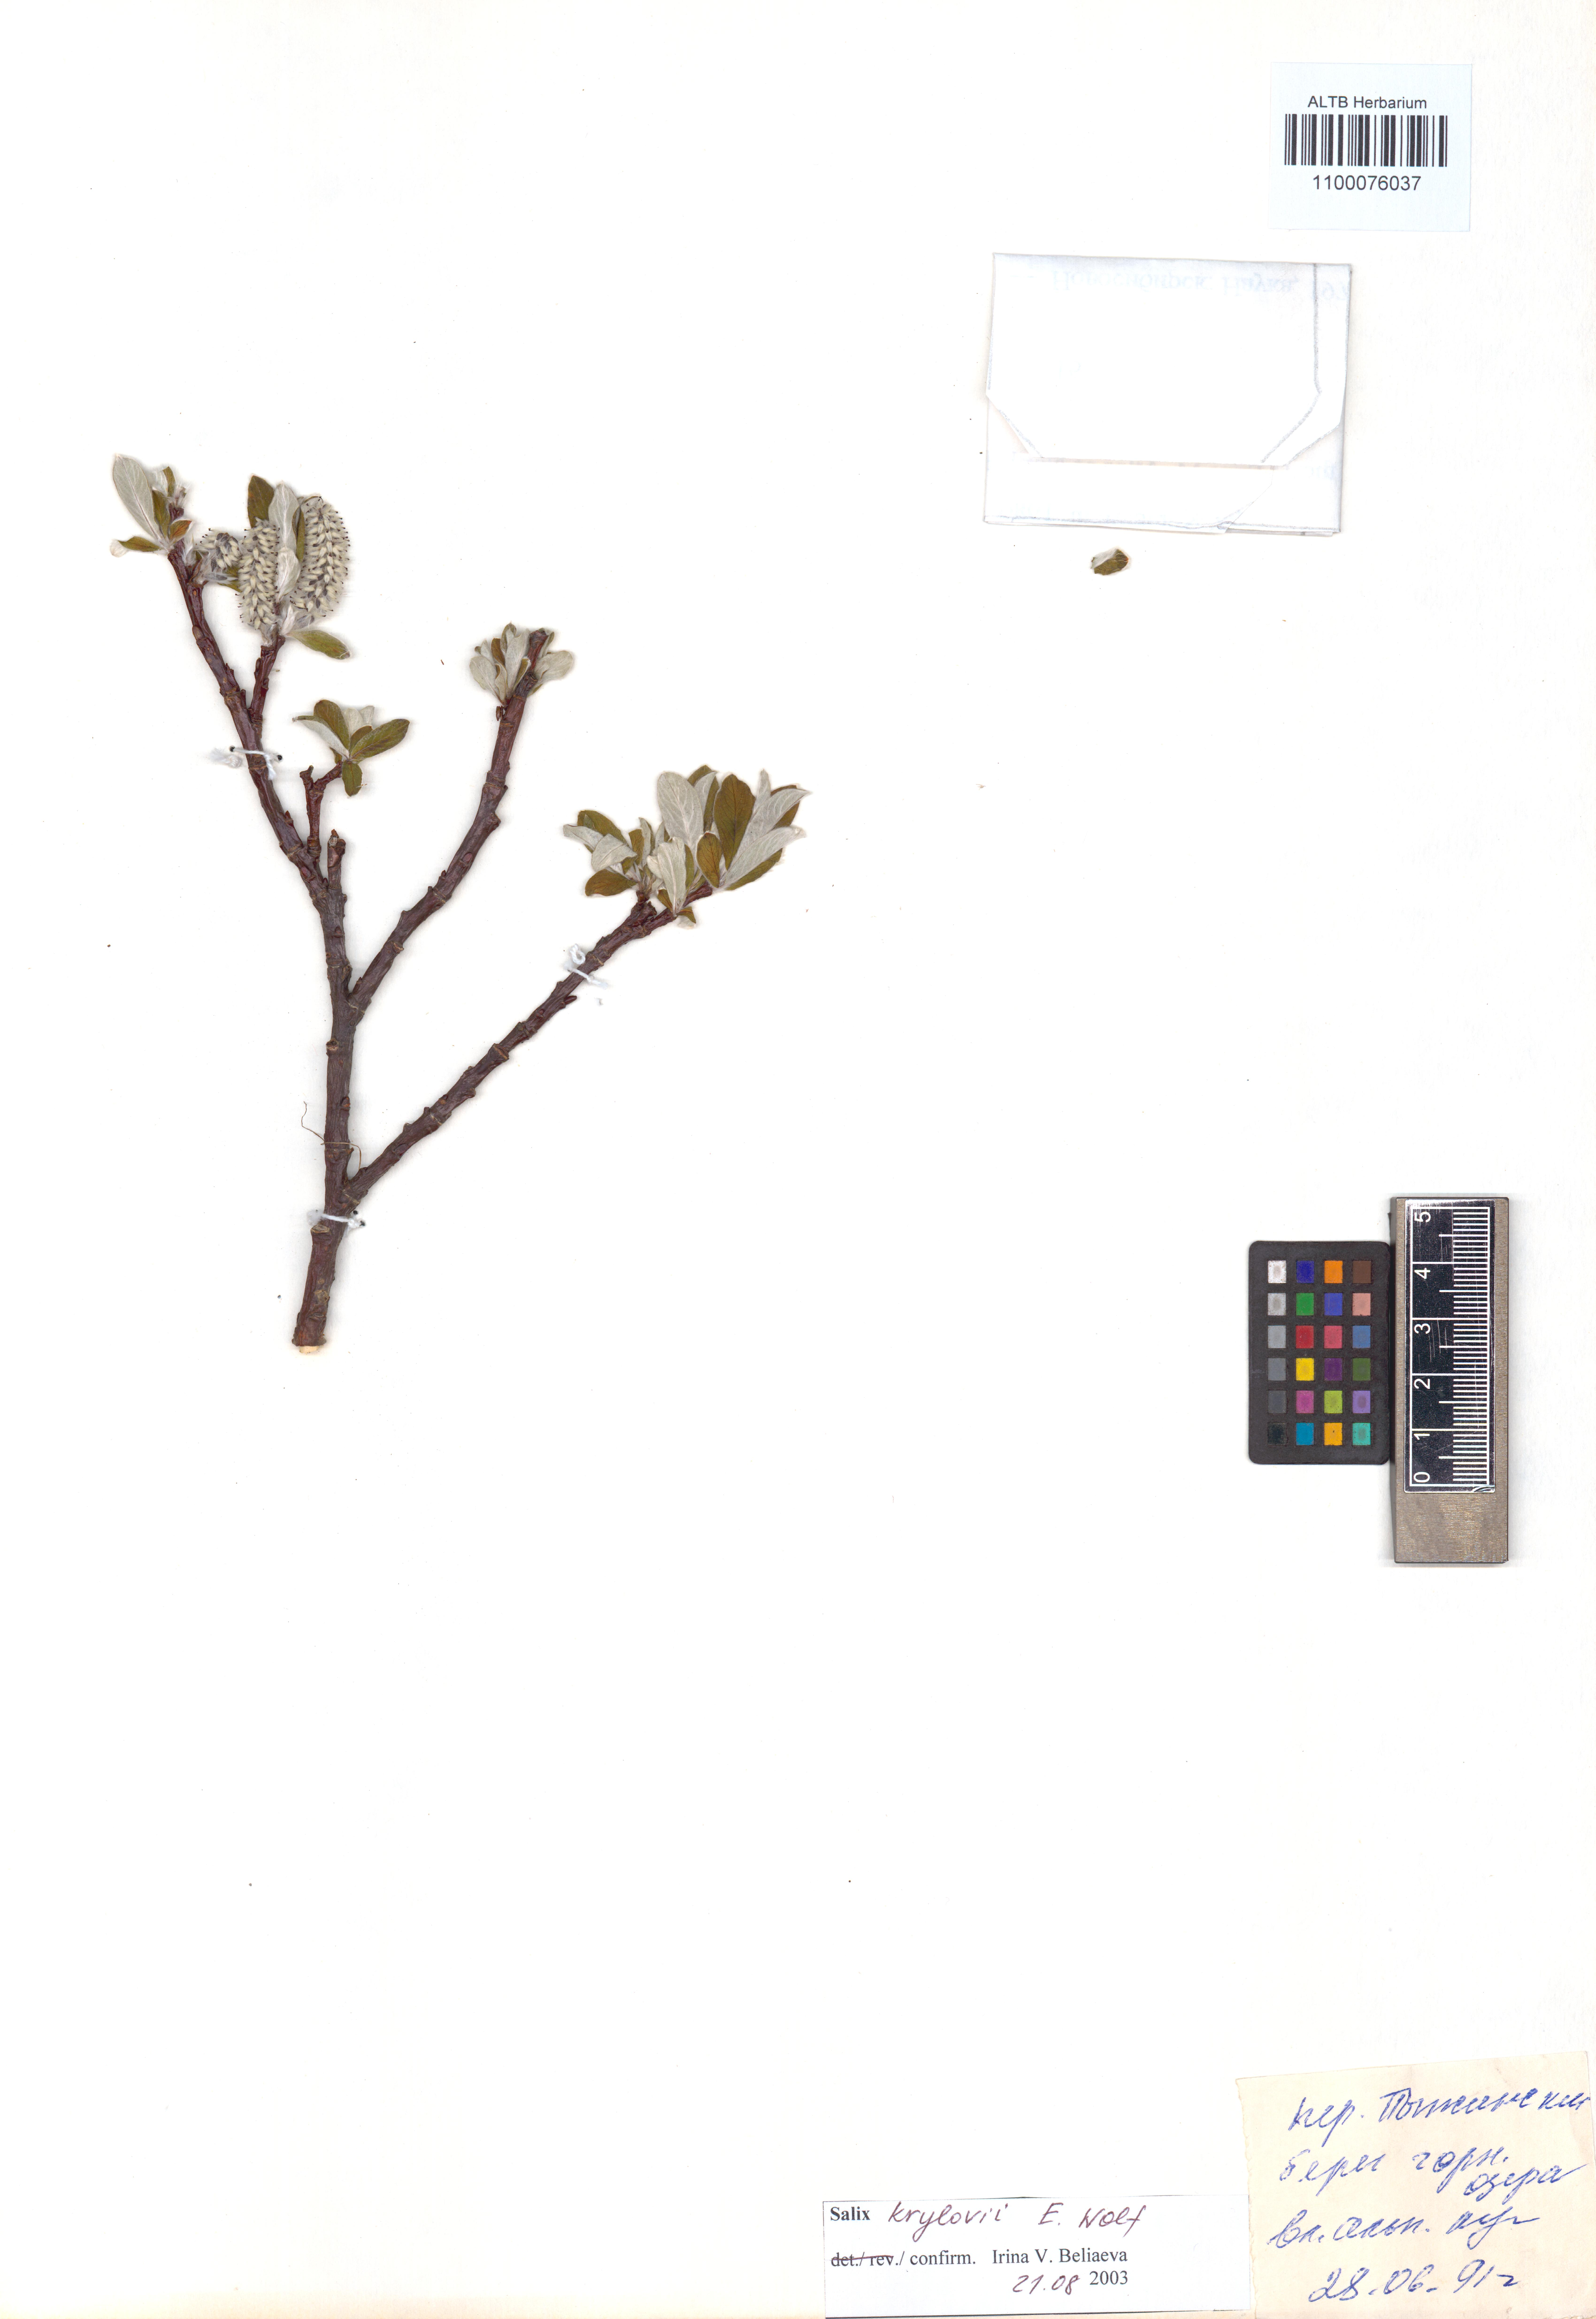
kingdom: Plantae
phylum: Tracheophyta
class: Magnoliopsida
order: Malpighiales
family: Salicaceae
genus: Salix
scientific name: Salix krylovii
